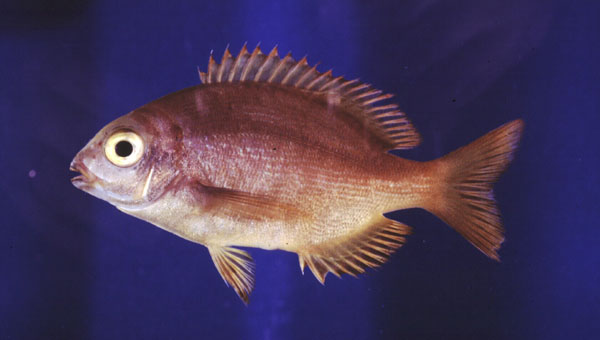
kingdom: Animalia
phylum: Chordata
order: Perciformes
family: Sparidae
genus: Pachymetopon
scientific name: Pachymetopon grande
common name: Bronze bream
